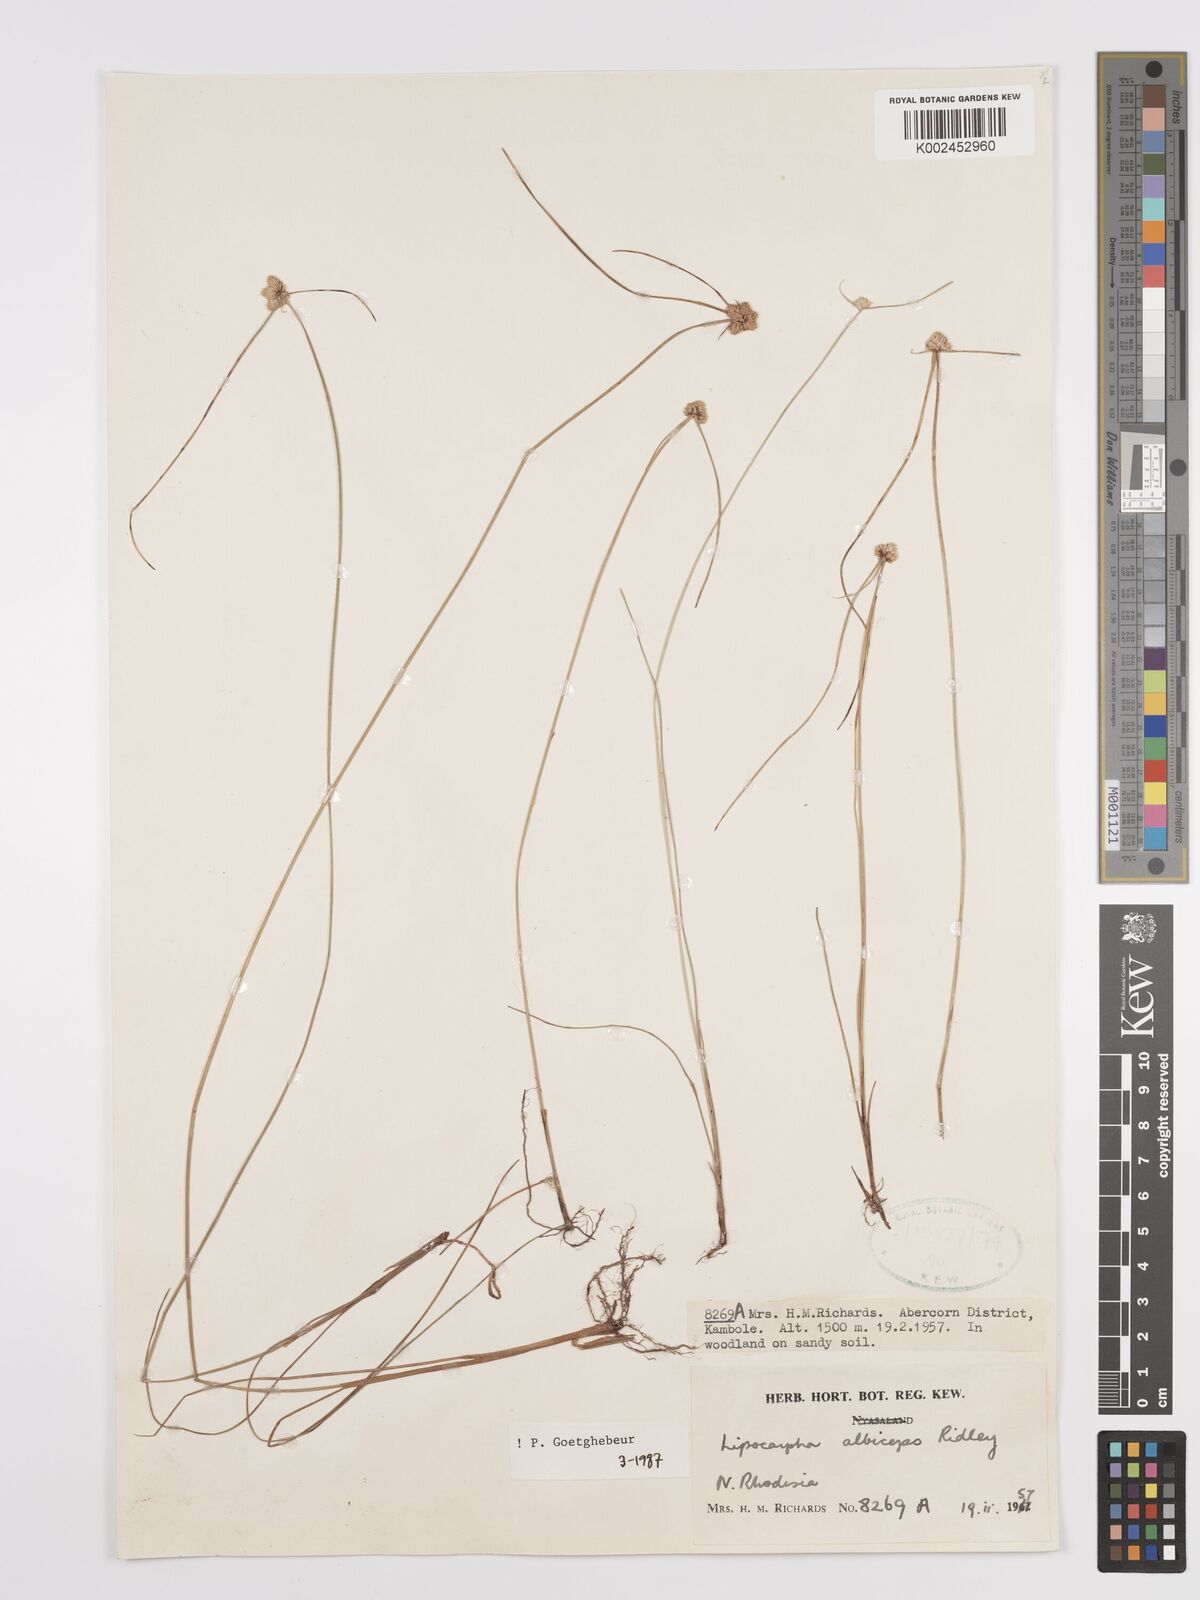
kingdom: Plantae
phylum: Tracheophyta
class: Liliopsida
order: Poales
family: Cyperaceae
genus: Cyperus
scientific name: Cyperus albiceps
